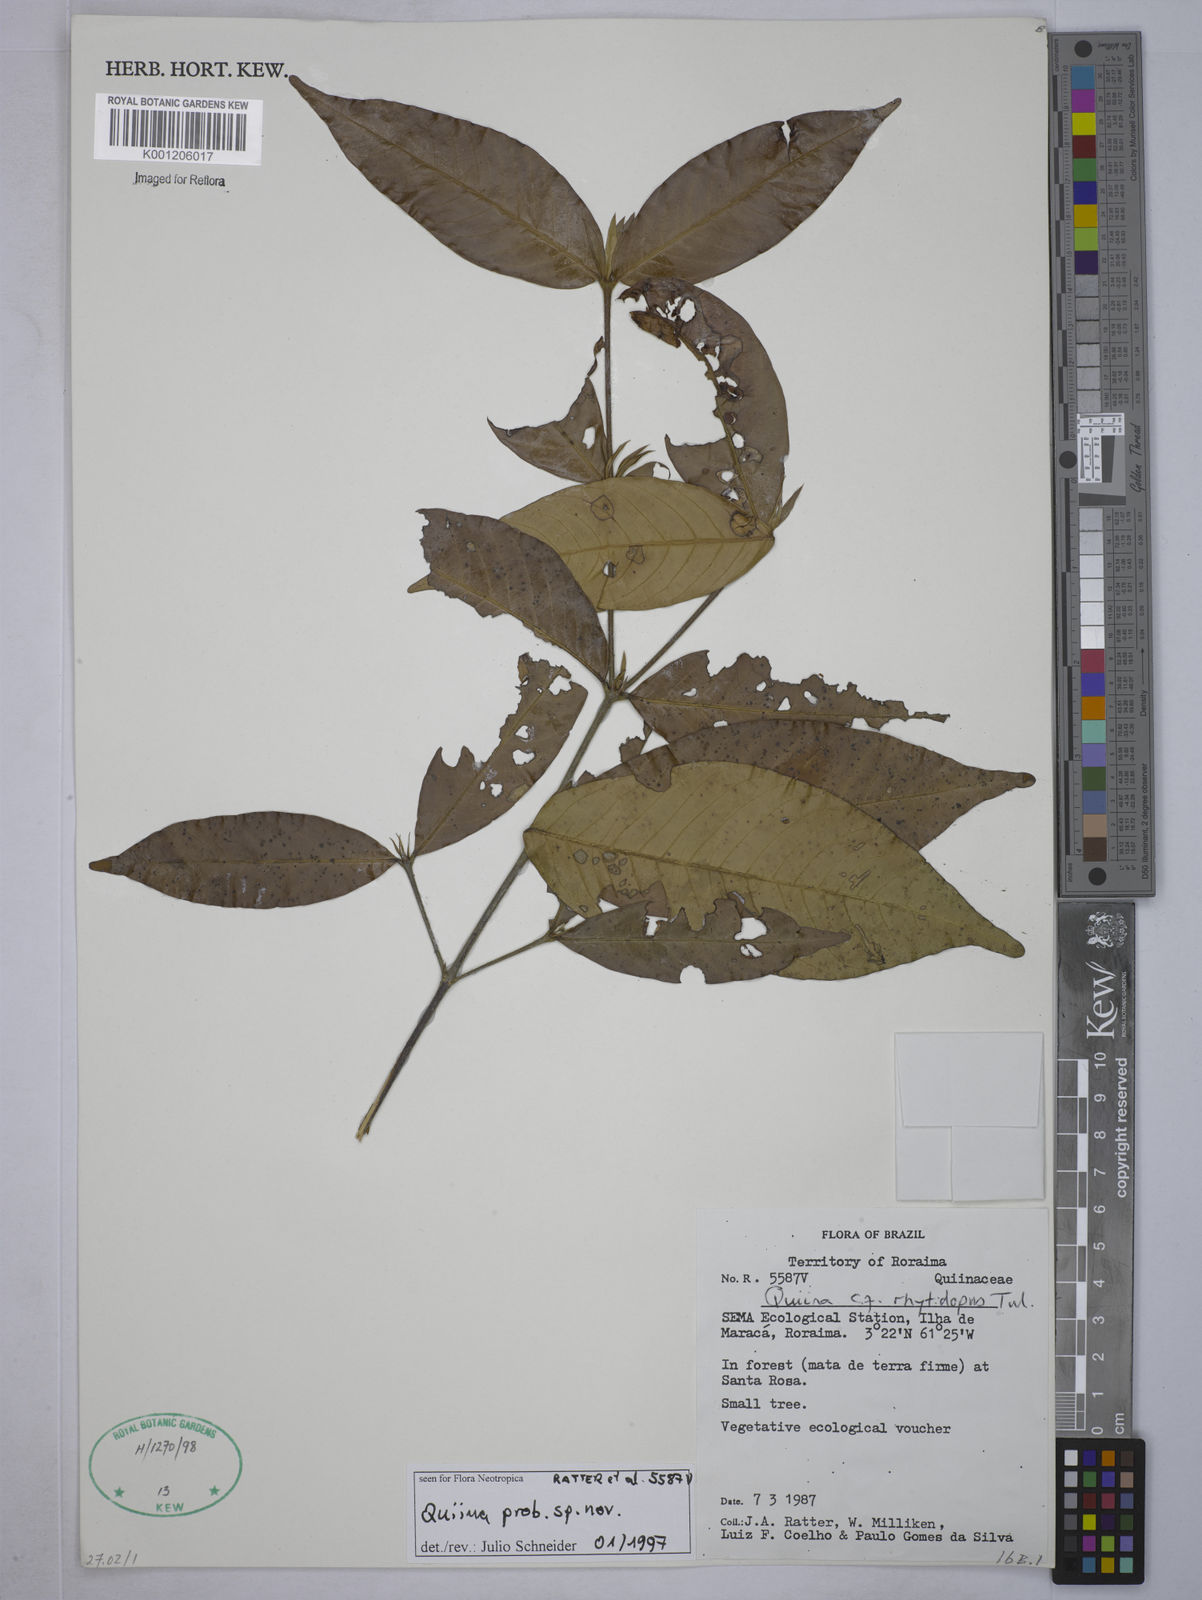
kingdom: Plantae
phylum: Tracheophyta
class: Magnoliopsida
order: Malpighiales
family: Quiinaceae
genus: Quiina
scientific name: Quiina
